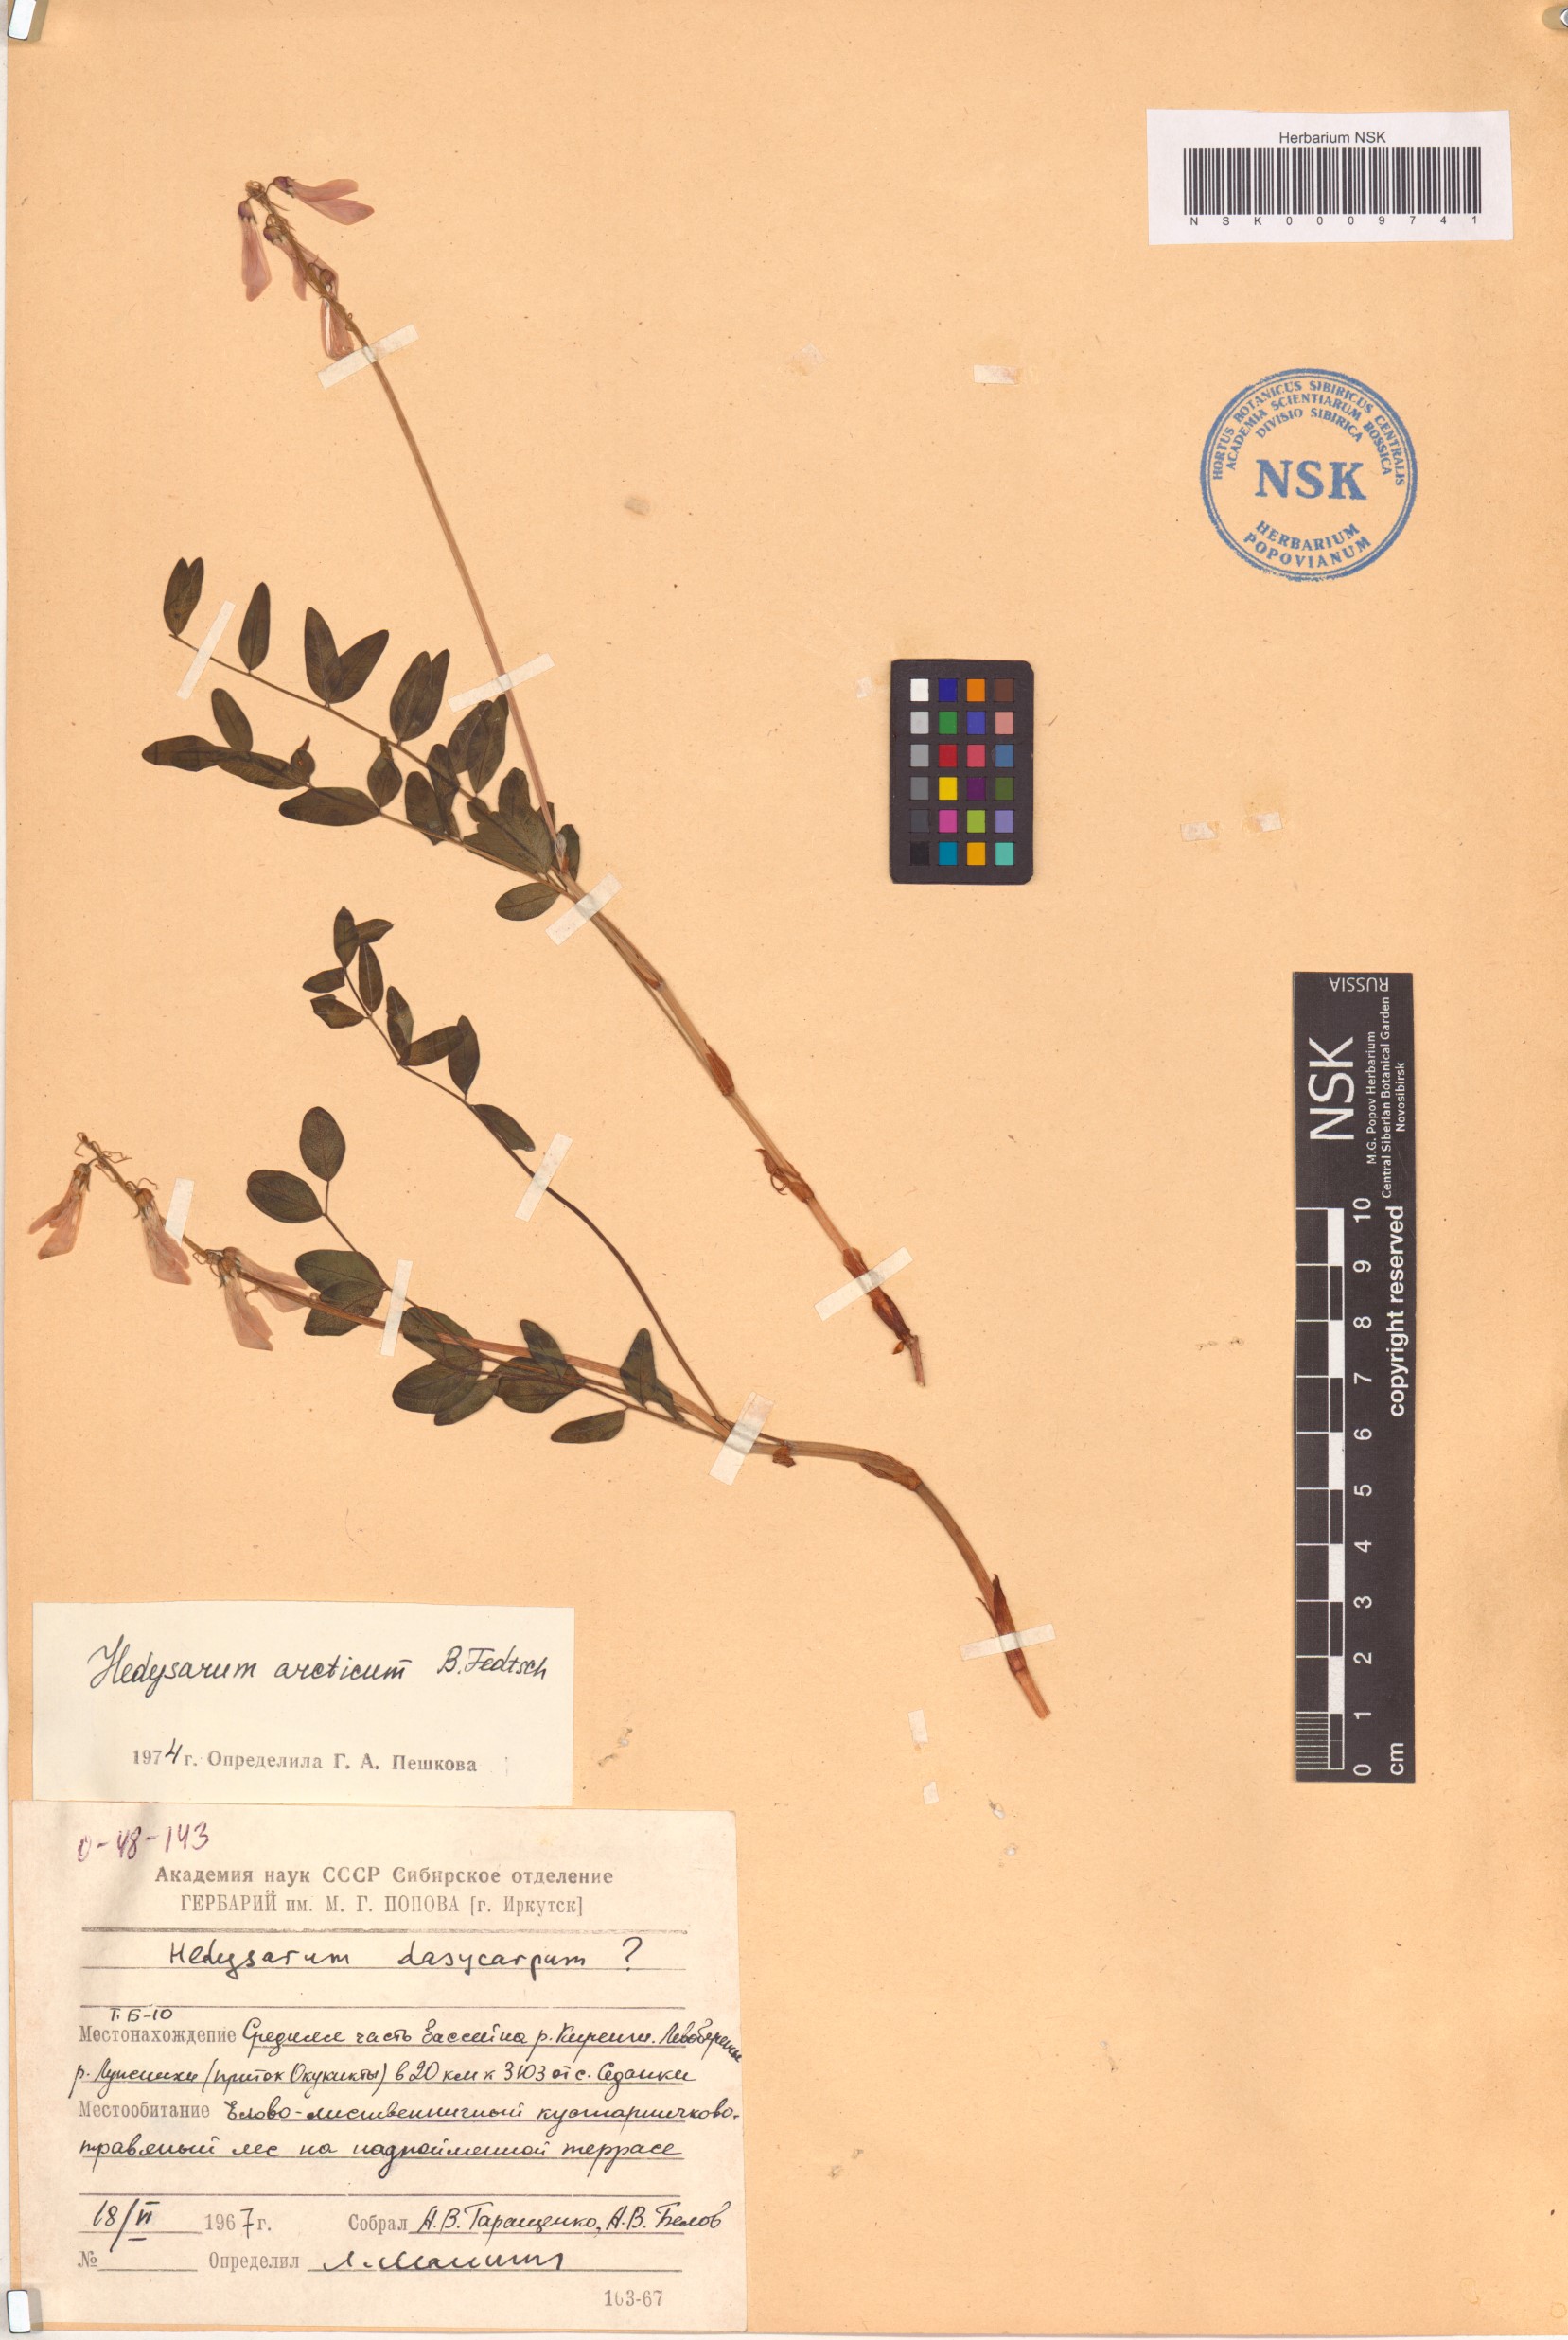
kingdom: Plantae
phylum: Tracheophyta
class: Magnoliopsida
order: Fabales
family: Fabaceae
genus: Hedysarum
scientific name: Hedysarum hedysaroides
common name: Alpine french-honeysuckle
